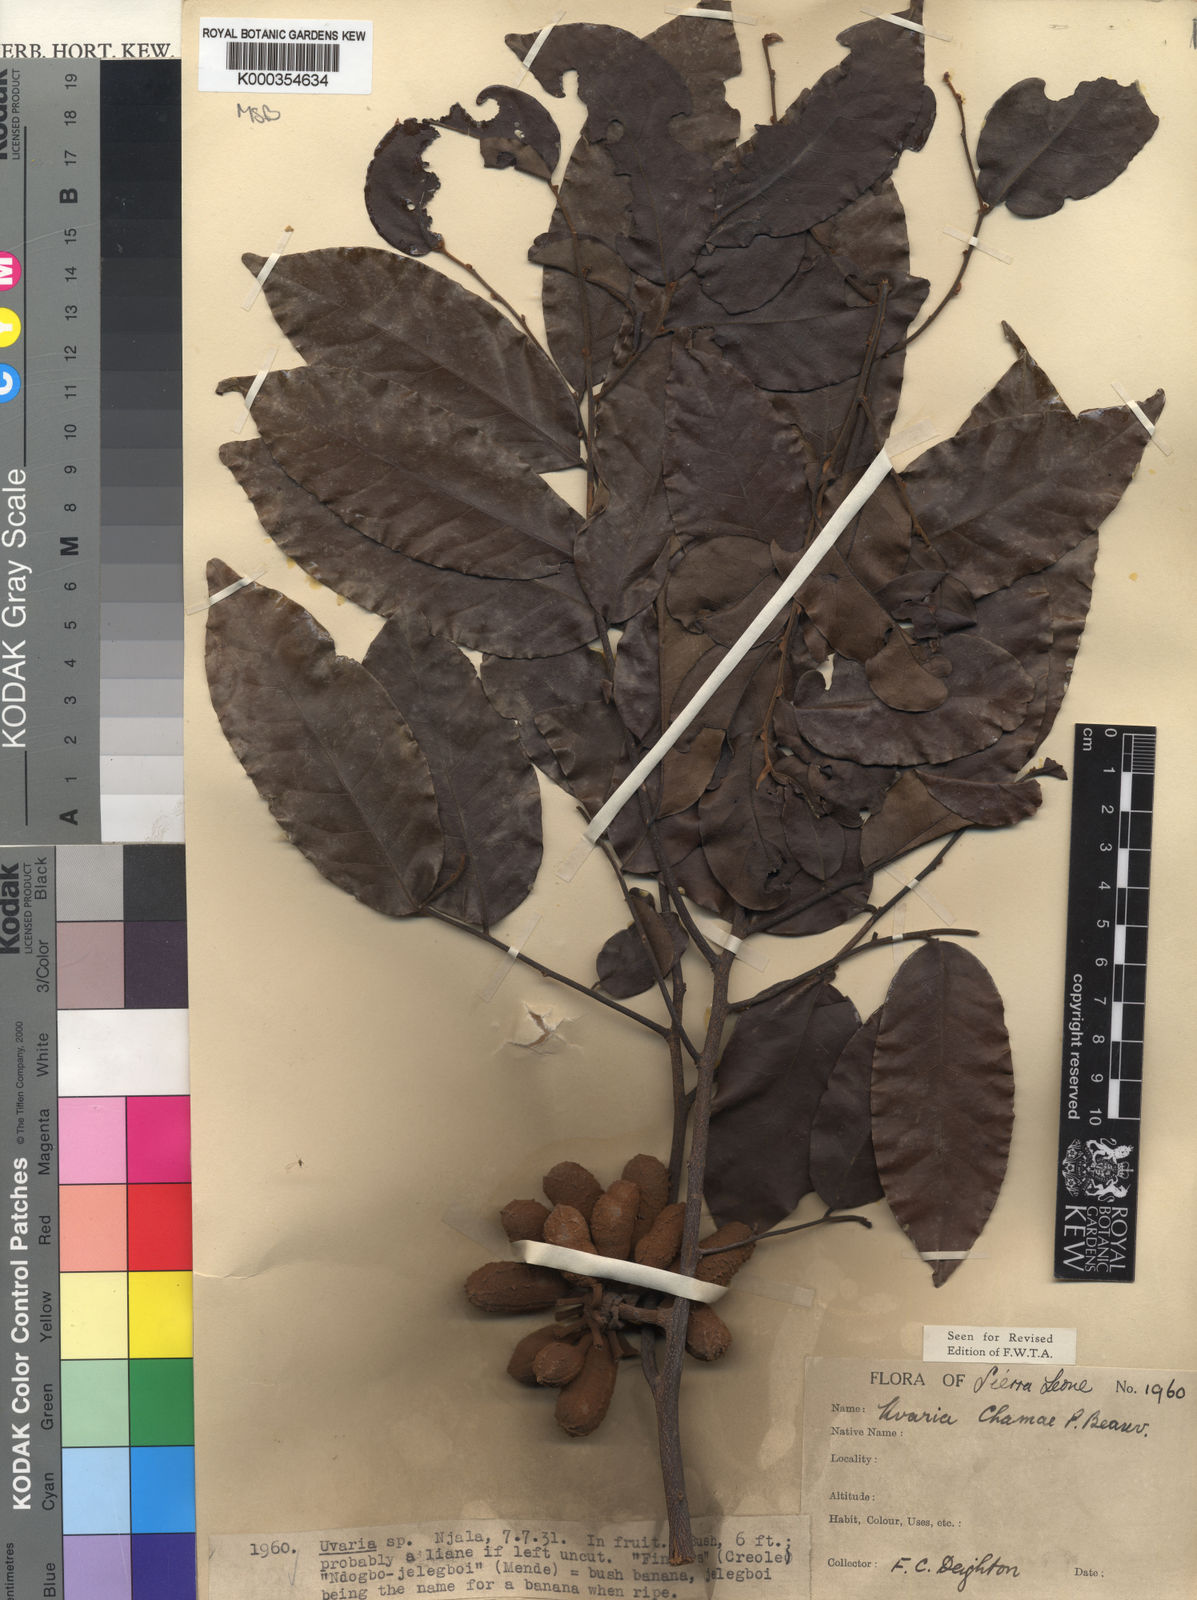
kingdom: Plantae
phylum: Tracheophyta
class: Magnoliopsida
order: Magnoliales
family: Annonaceae
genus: Uvaria
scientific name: Uvaria chamae
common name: Finger-root
